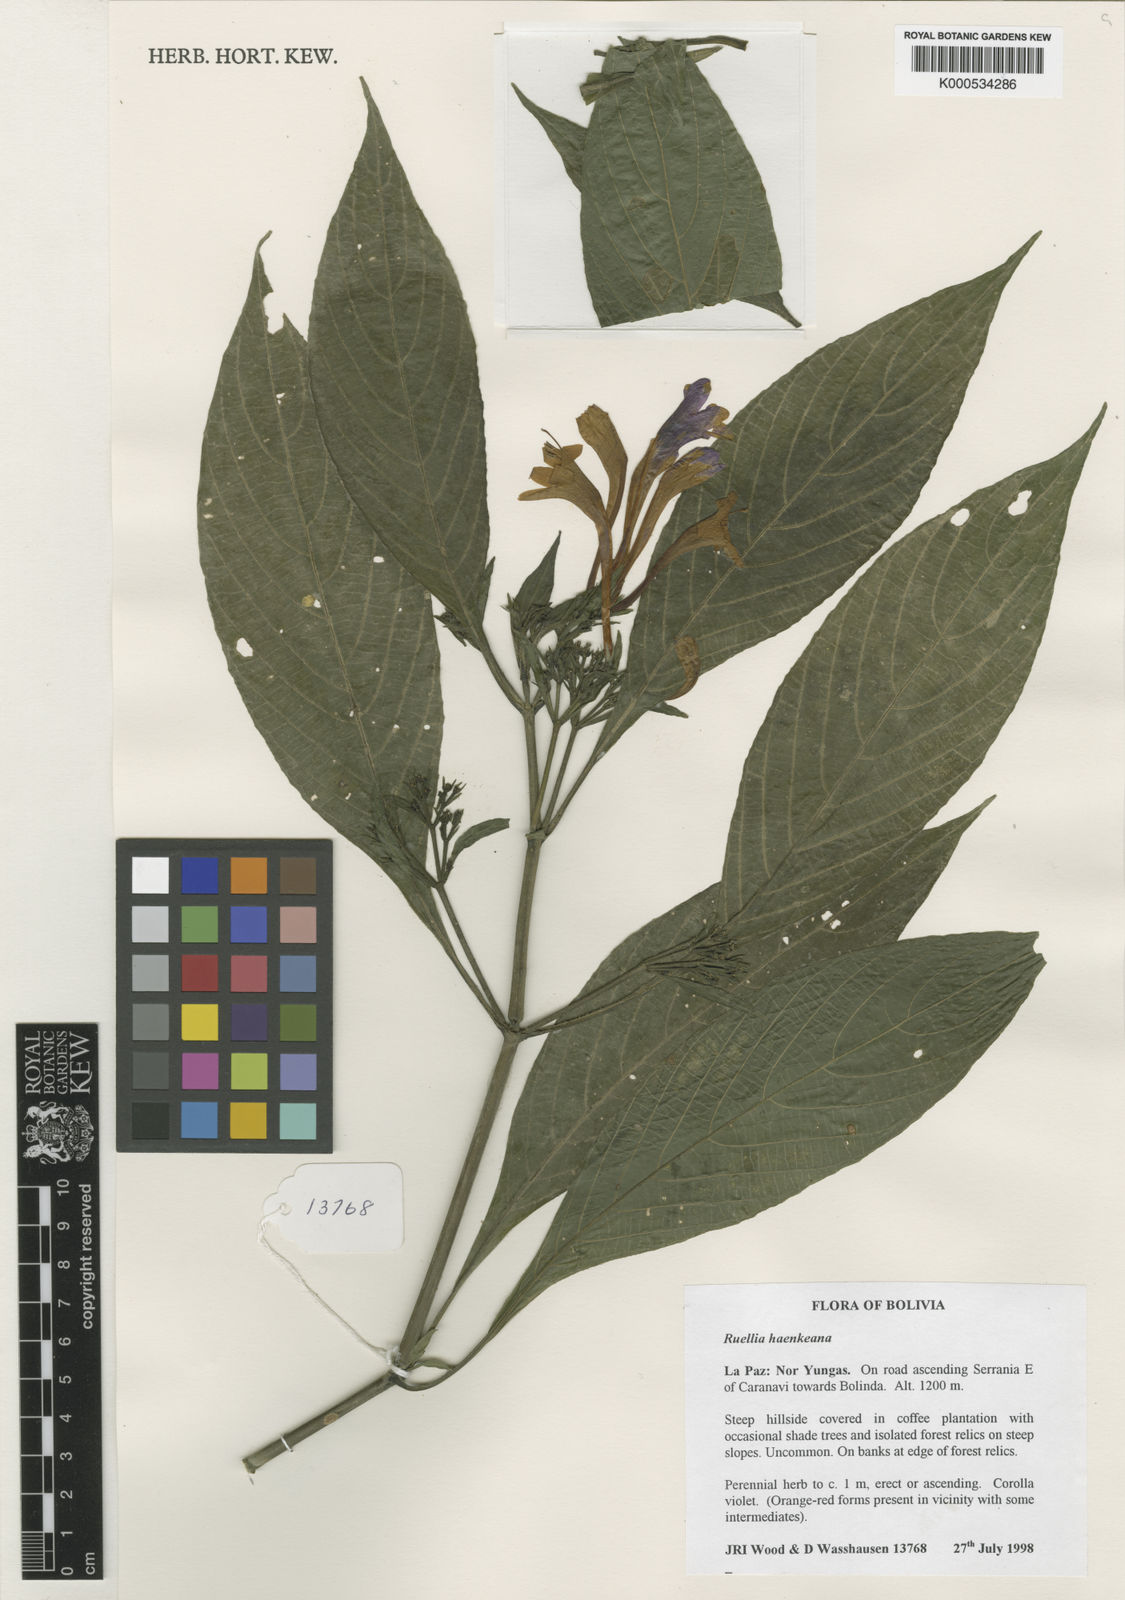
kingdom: Plantae
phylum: Tracheophyta
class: Magnoliopsida
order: Lamiales
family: Acanthaceae
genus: Ruellia
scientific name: Ruellia haenkeana
